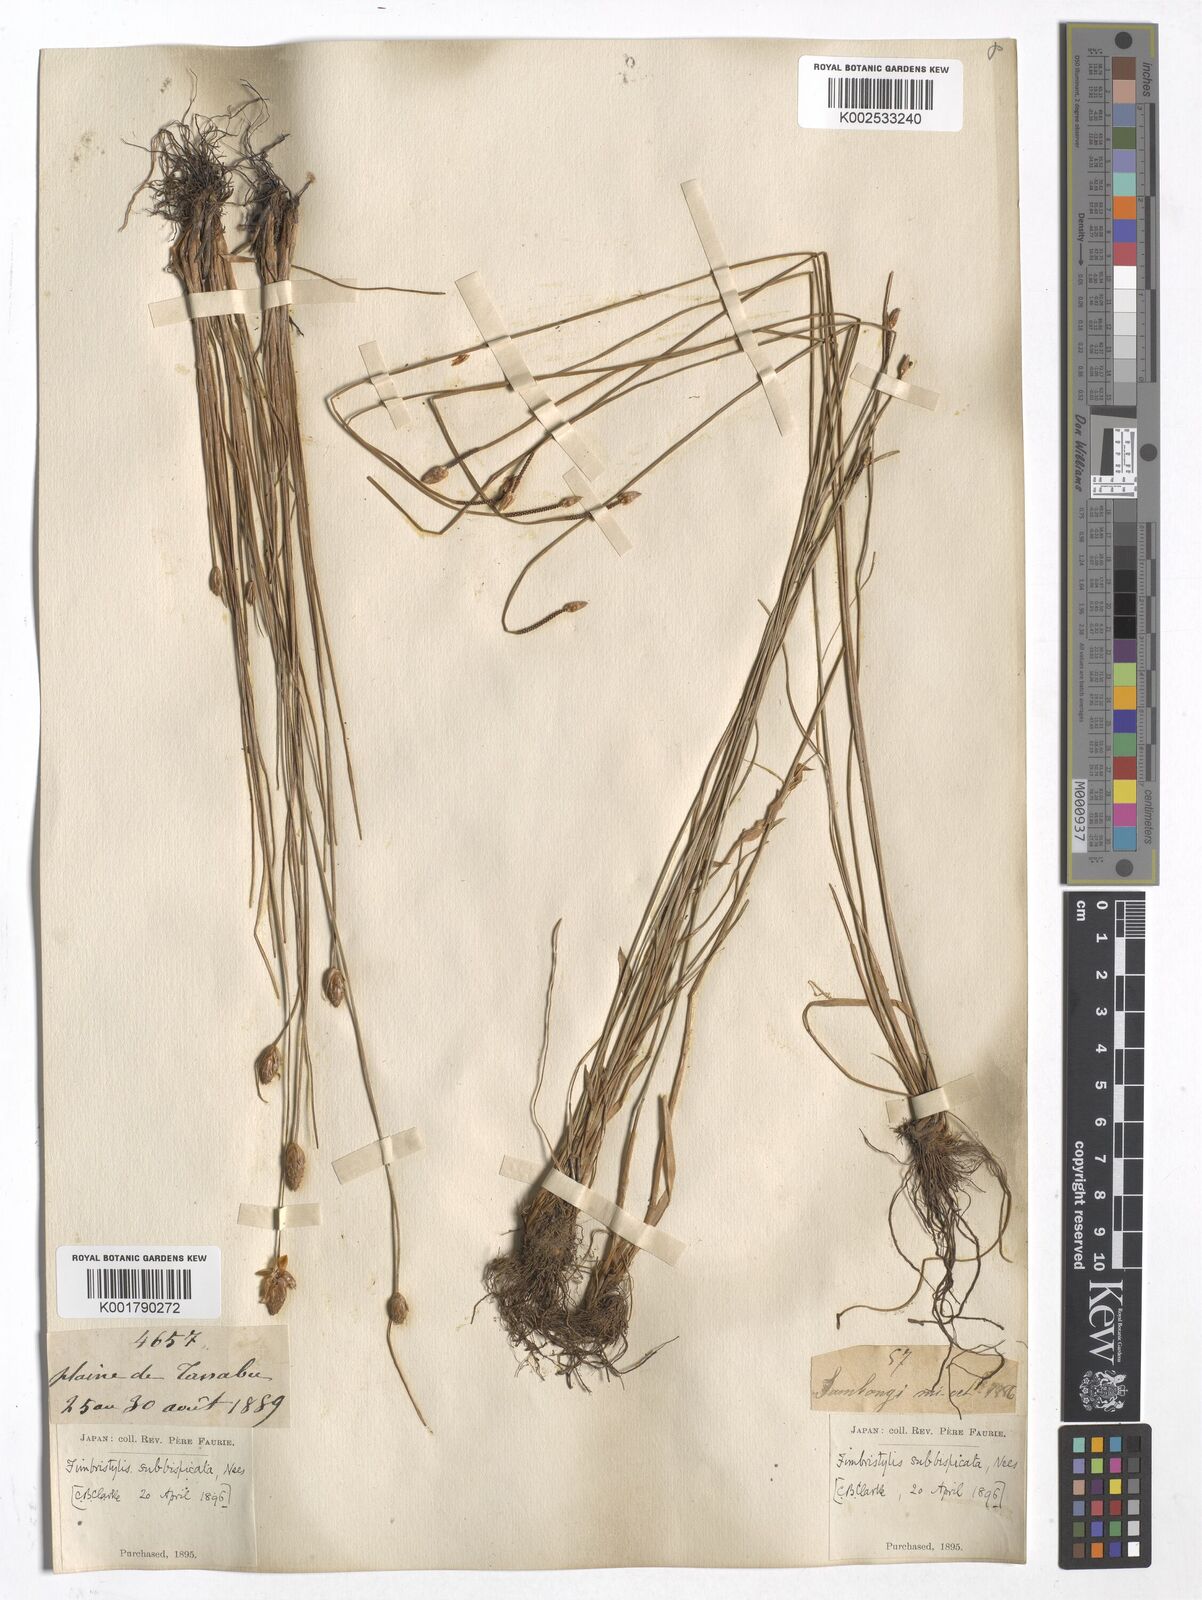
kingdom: Plantae
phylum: Tracheophyta
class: Liliopsida
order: Poales
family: Cyperaceae
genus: Fimbristylis
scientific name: Fimbristylis tristachya
